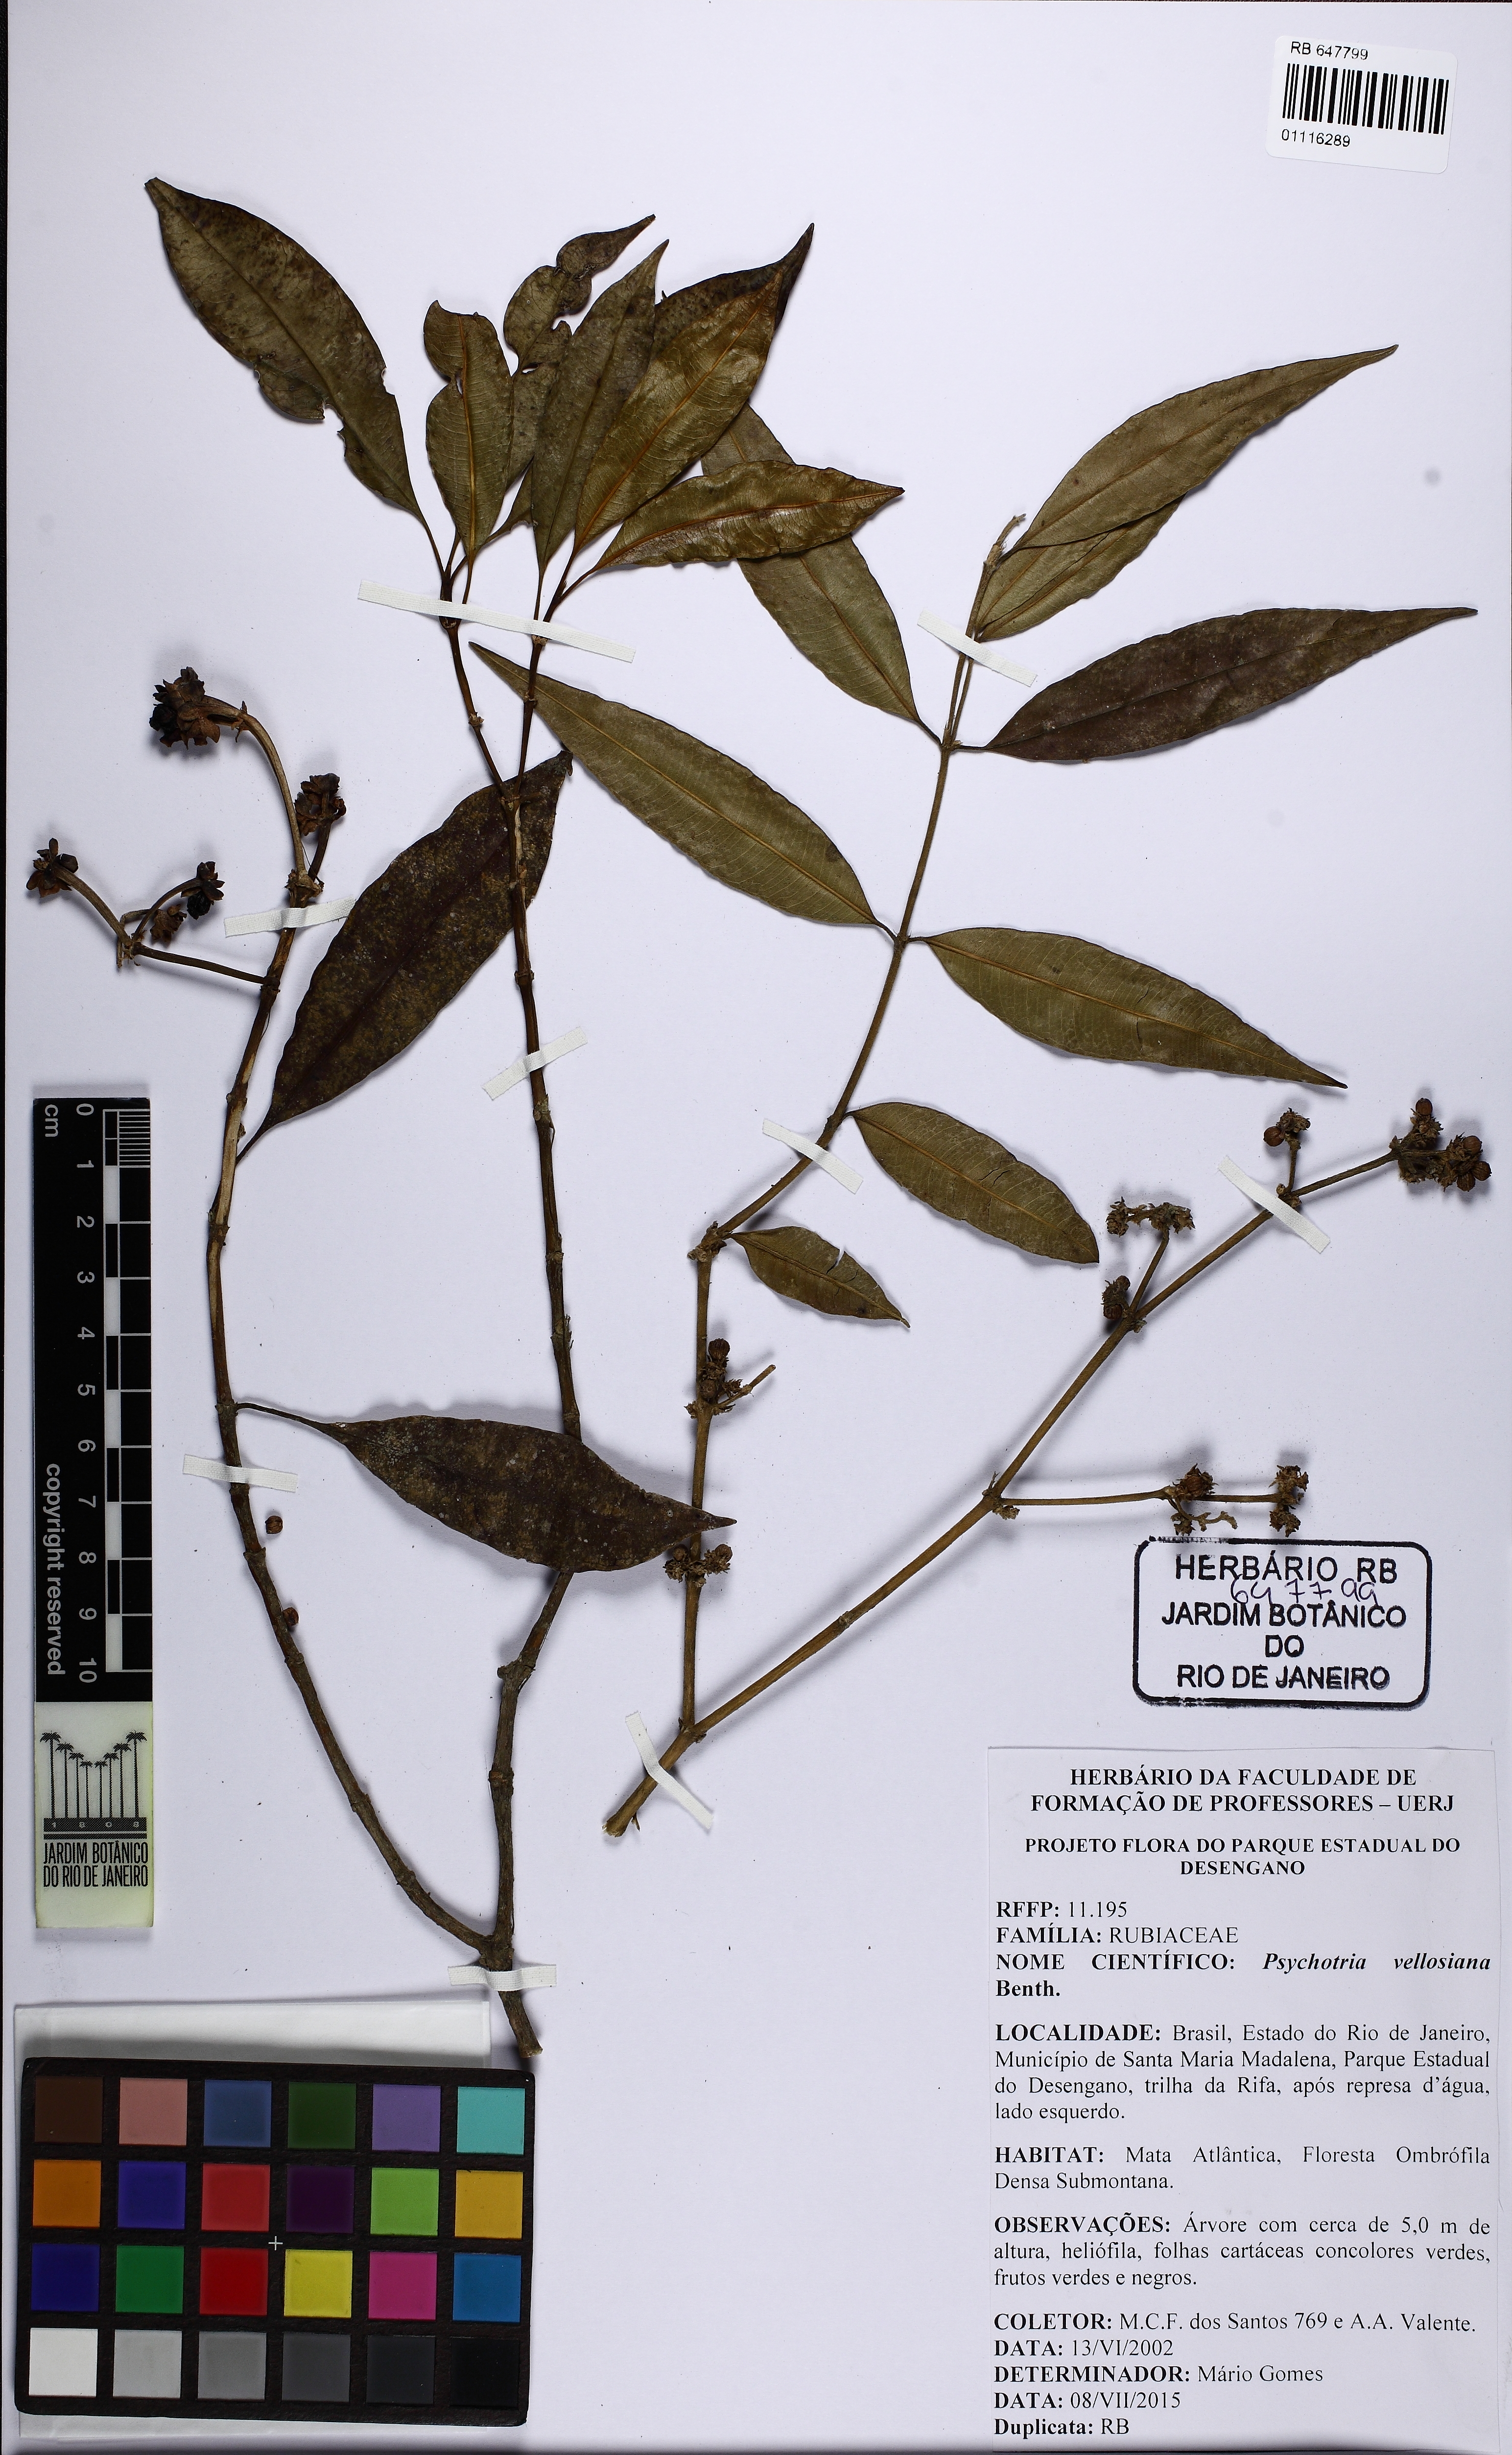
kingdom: Plantae
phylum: Tracheophyta
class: Magnoliopsida
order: Gentianales
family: Rubiaceae
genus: Palicourea
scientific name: Palicourea sessilis
